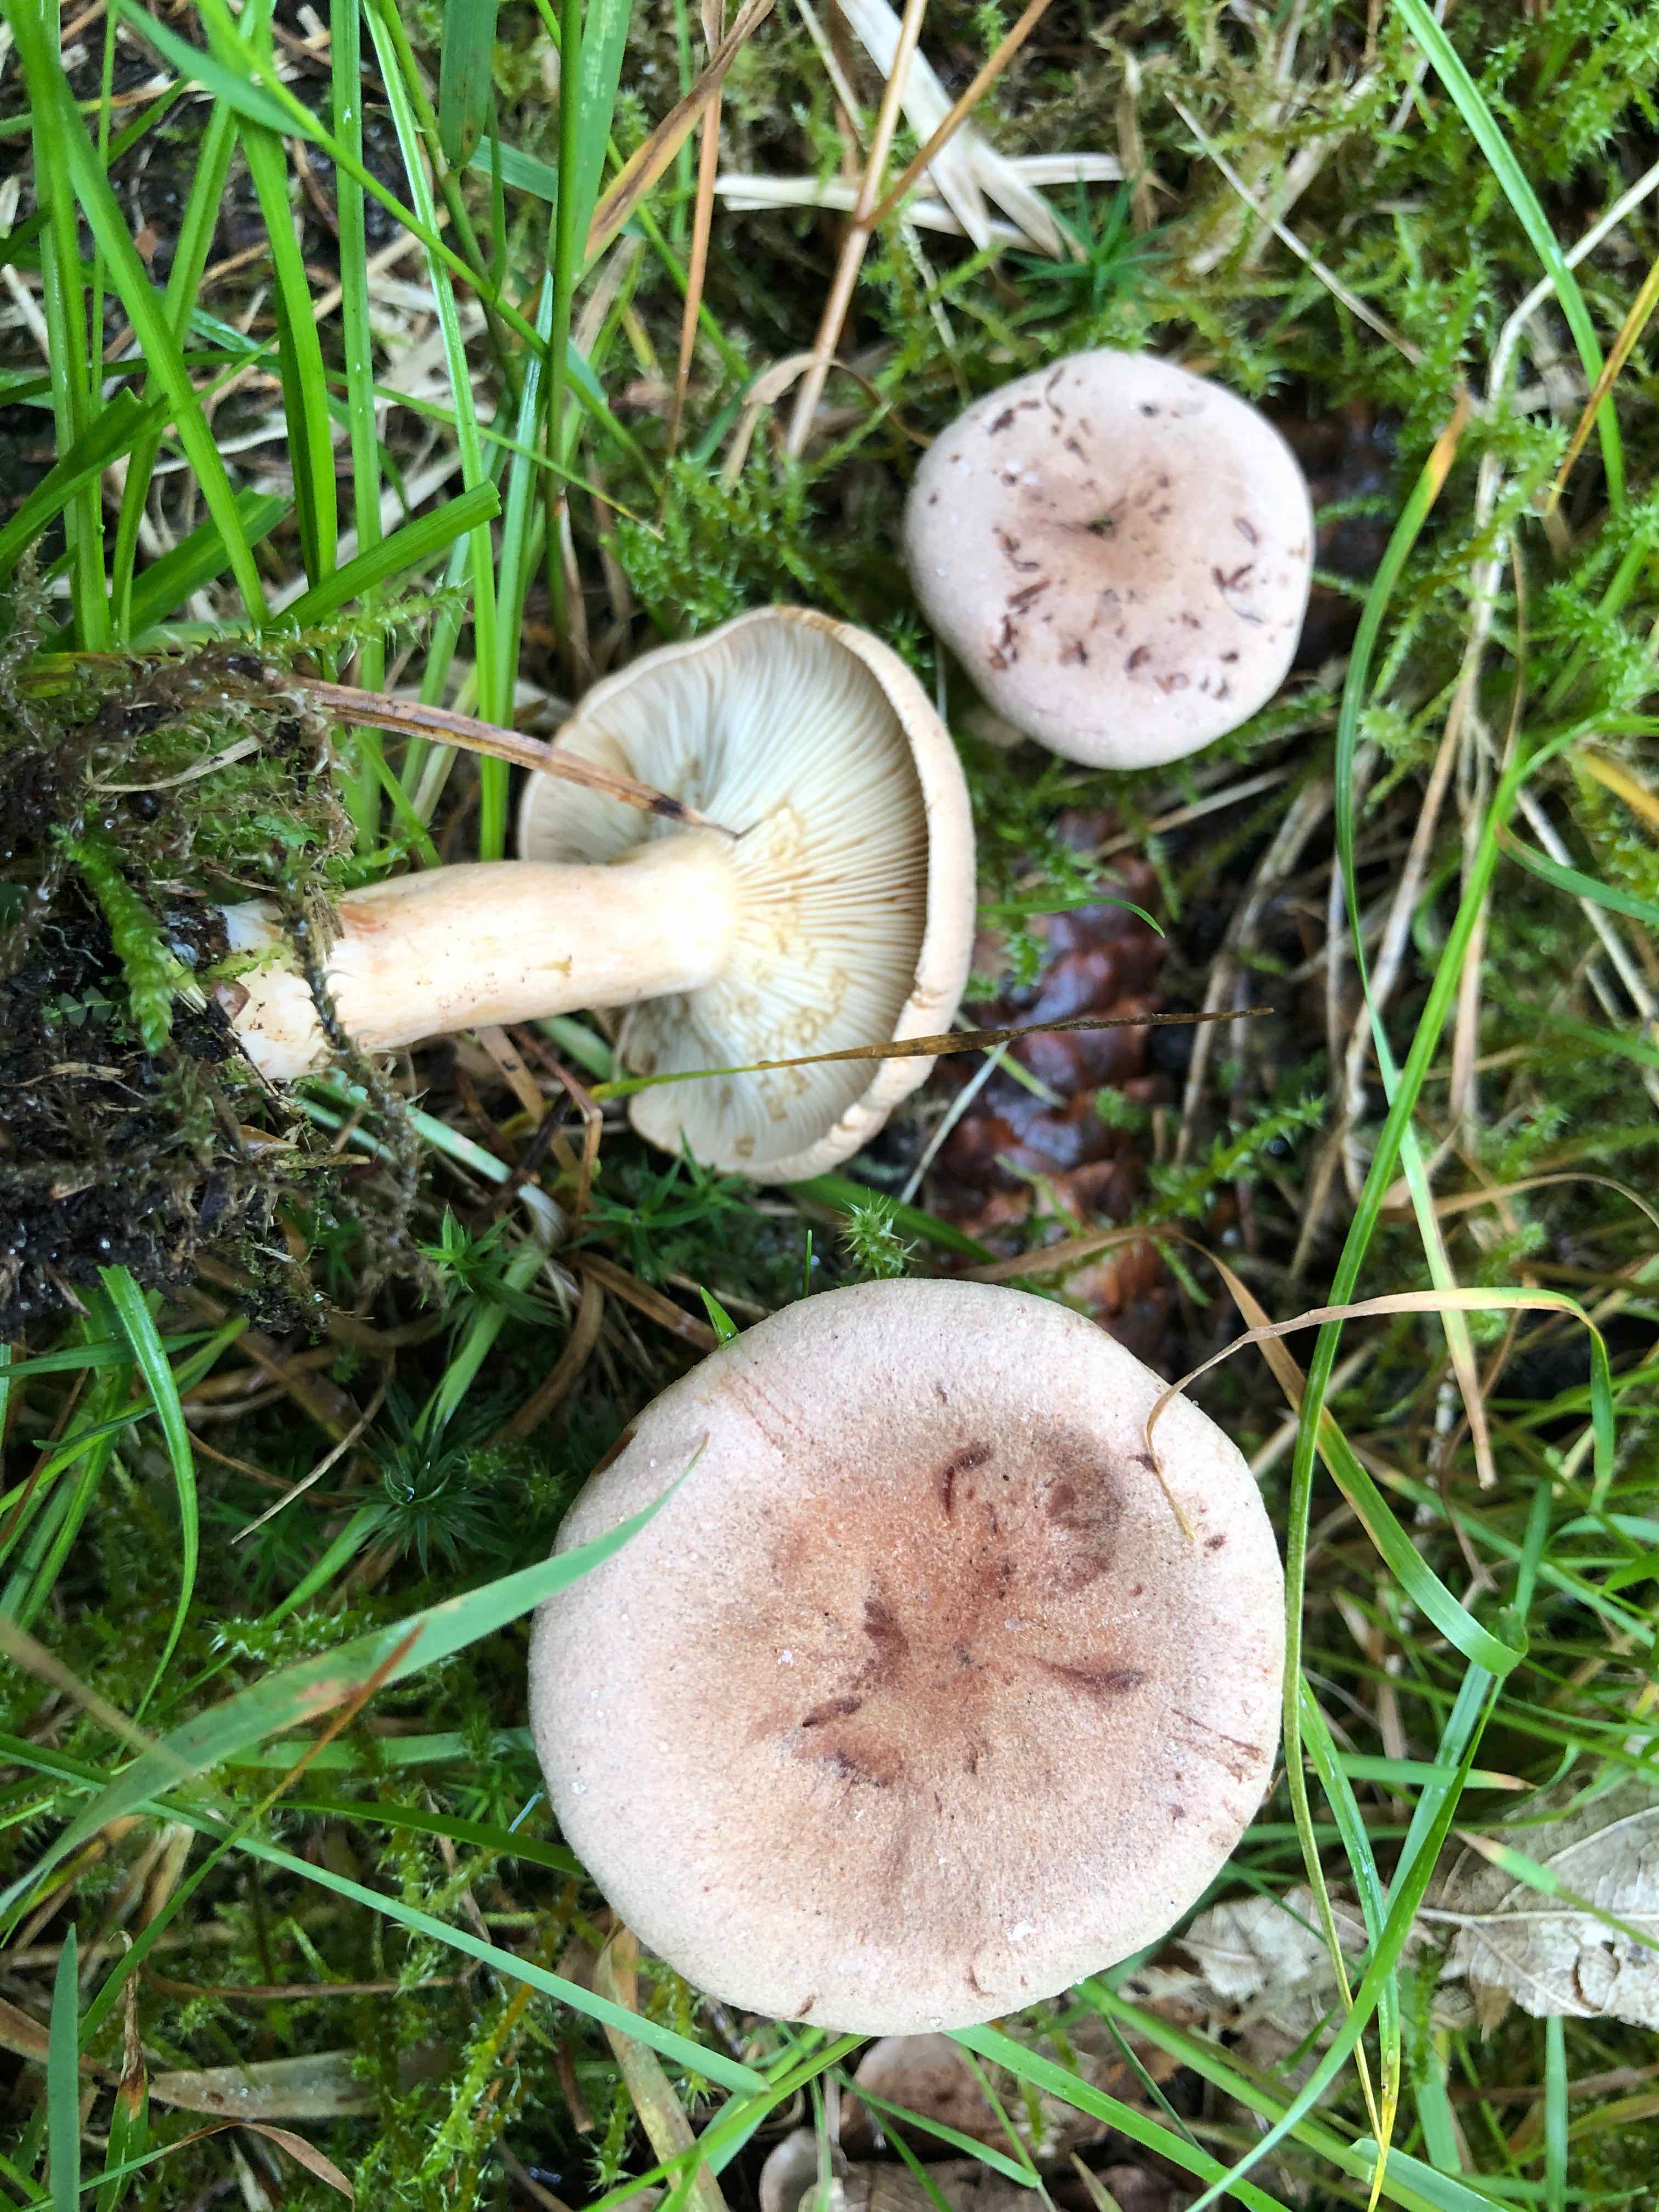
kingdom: Fungi
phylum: Basidiomycota
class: Agaricomycetes
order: Russulales
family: Russulaceae
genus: Lactarius
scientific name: Lactarius helvus
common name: mose-mælkehat
